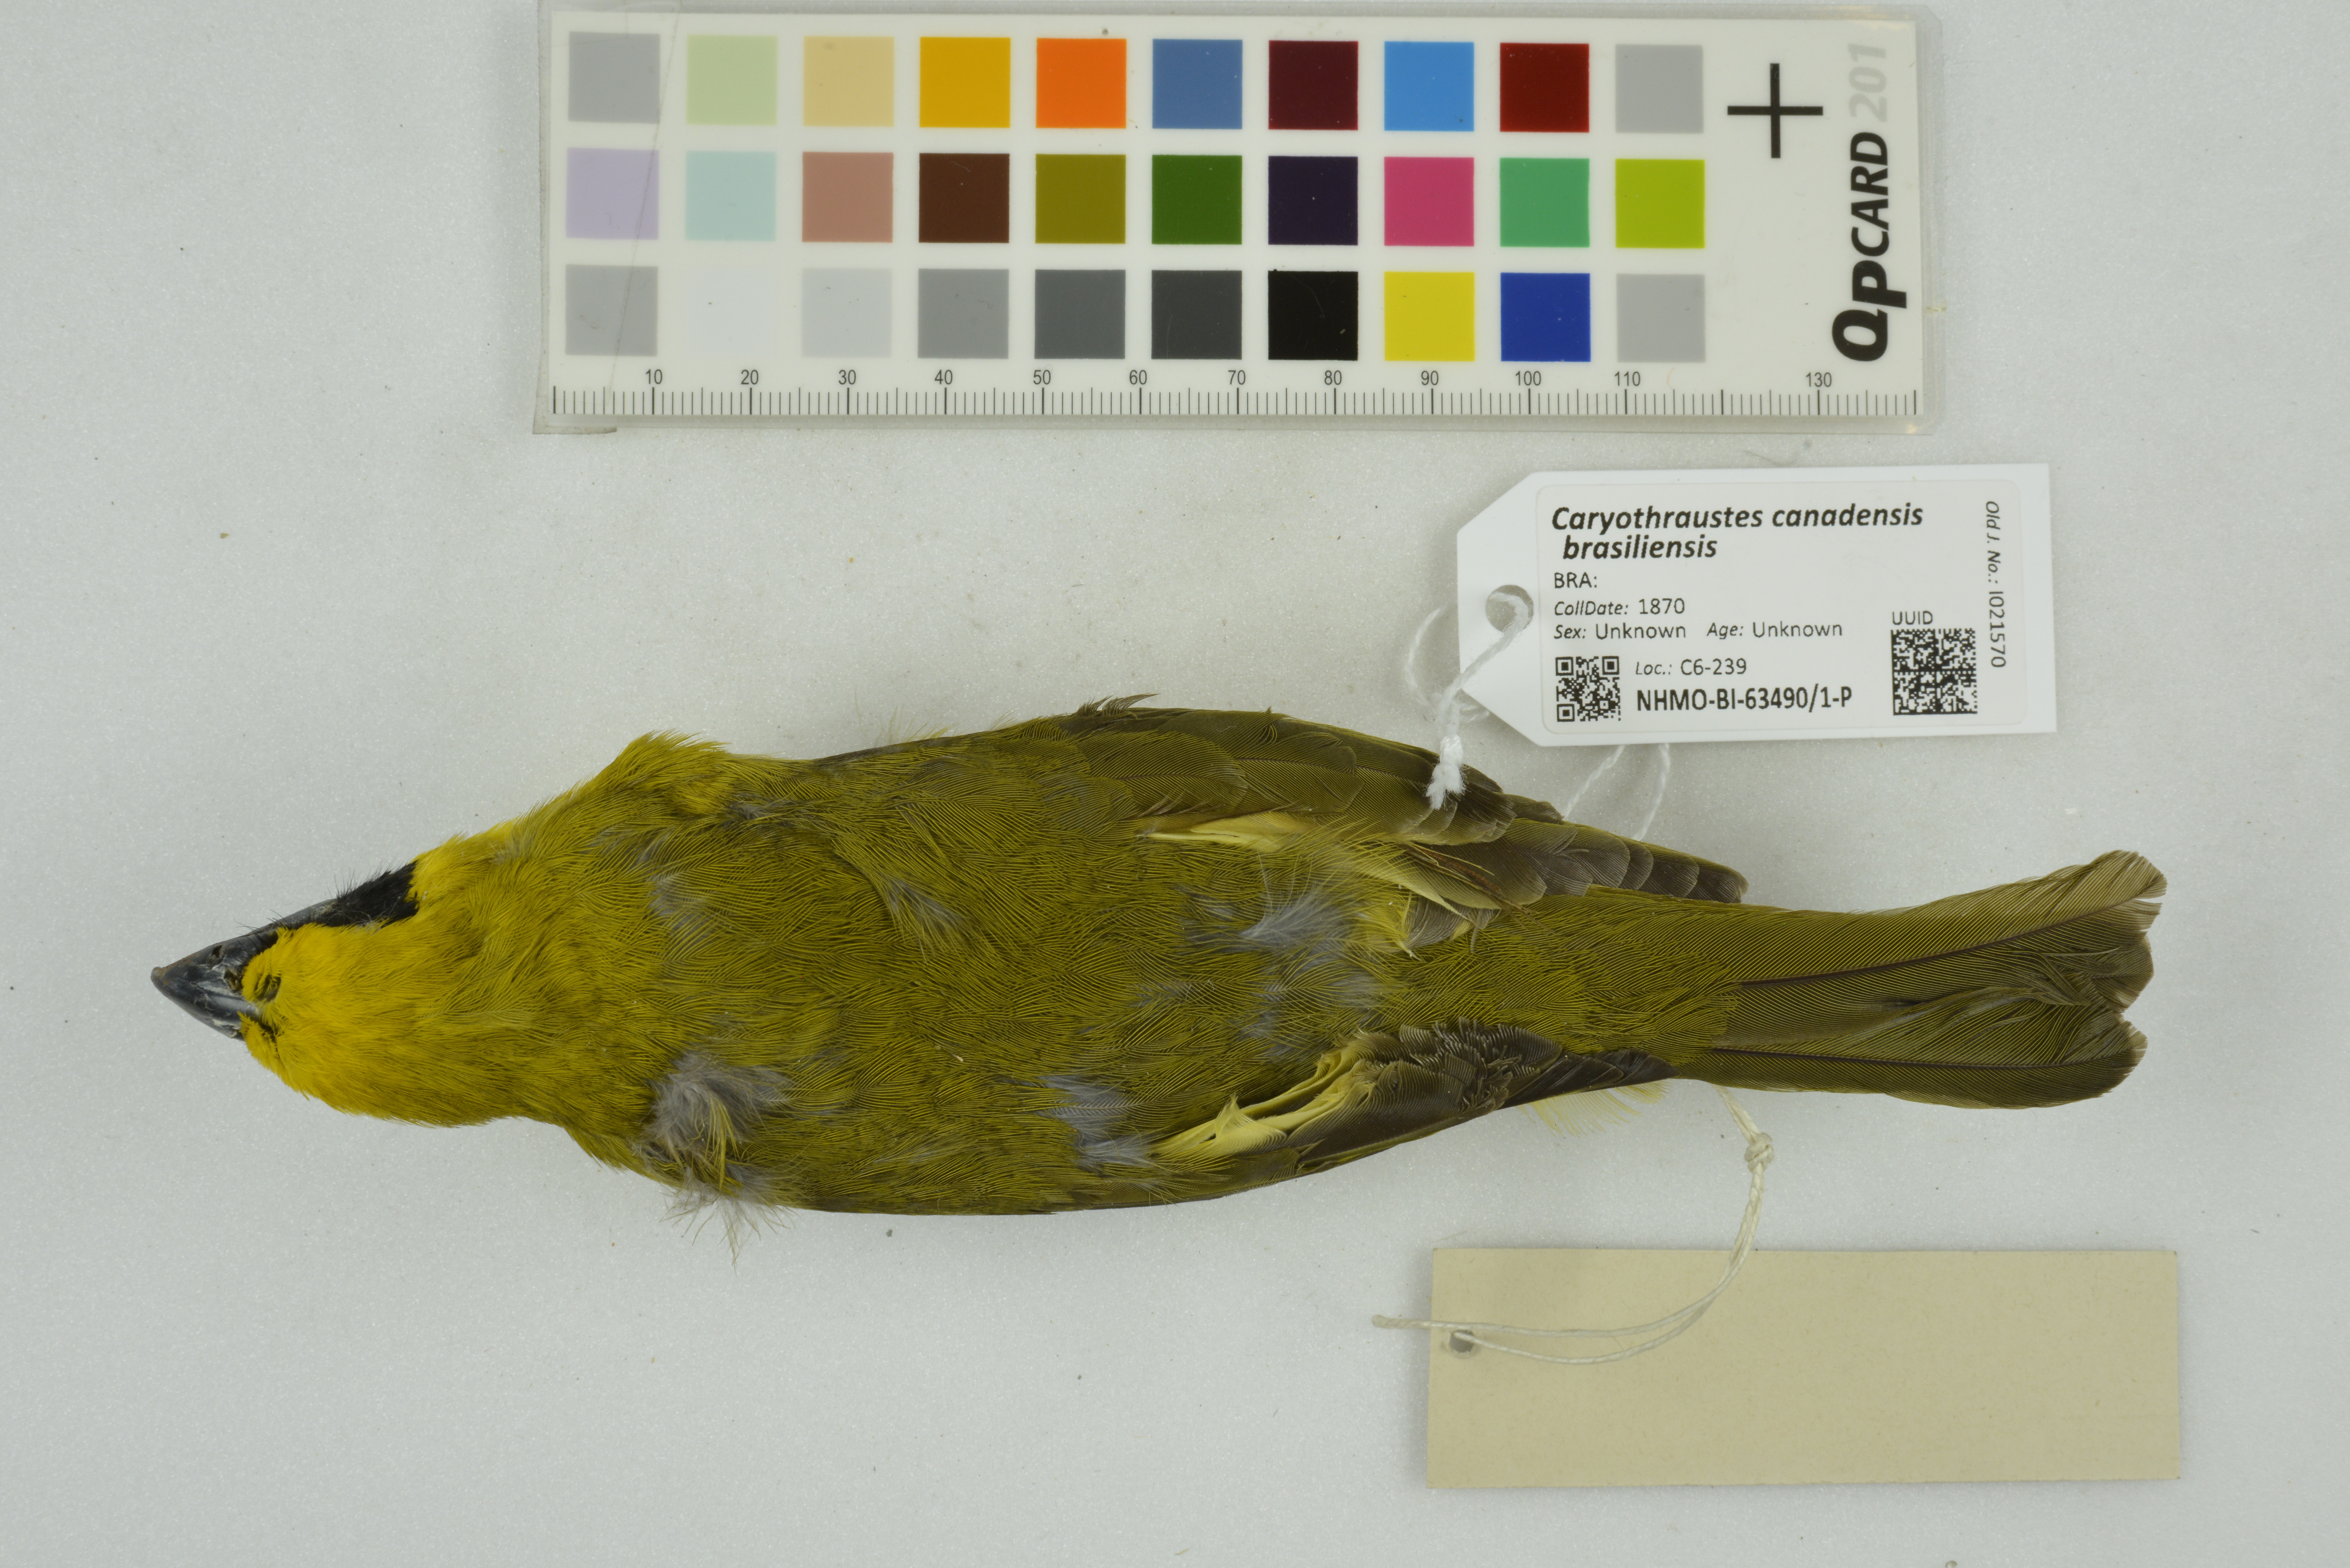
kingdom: Animalia
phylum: Chordata
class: Aves
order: Passeriformes
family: Cardinalidae
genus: Caryothraustes
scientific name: Caryothraustes canadensis
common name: Yellow-green grosbeak
